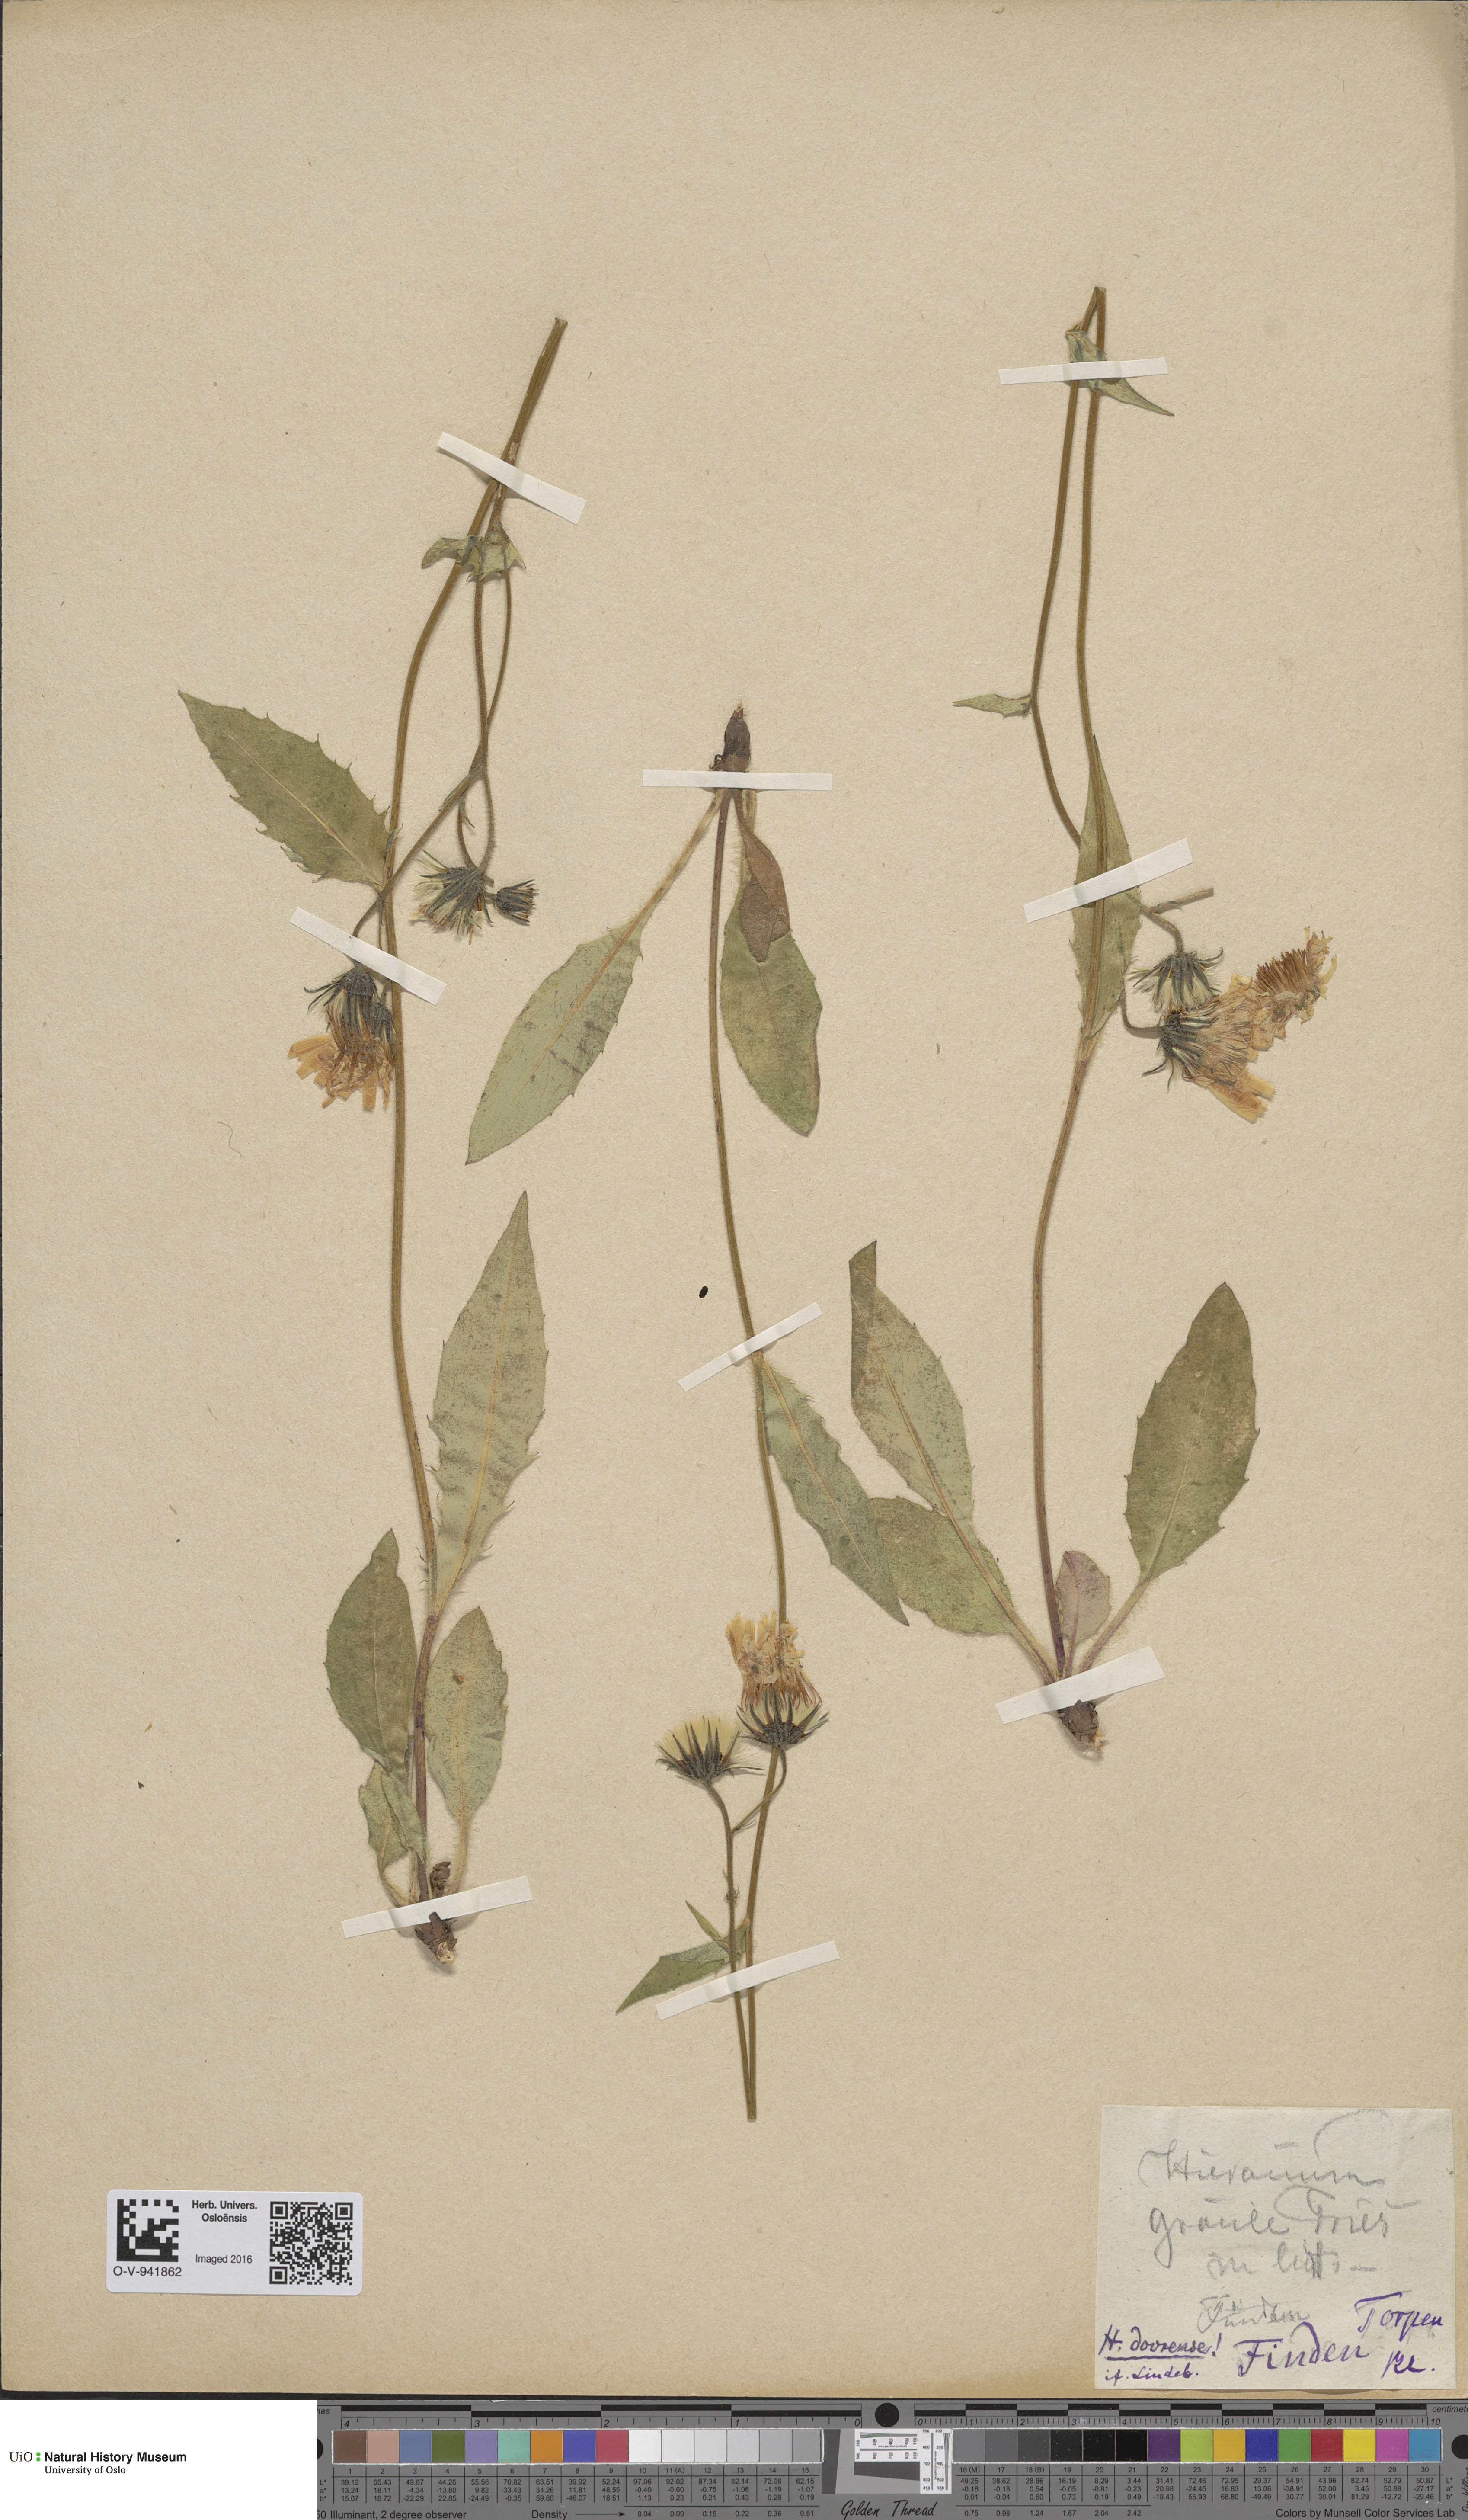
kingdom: Plantae
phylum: Tracheophyta
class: Magnoliopsida
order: Asterales
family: Asteraceae
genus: Hieracium
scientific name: Hieracium dovrense
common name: Dovre hawkweed
